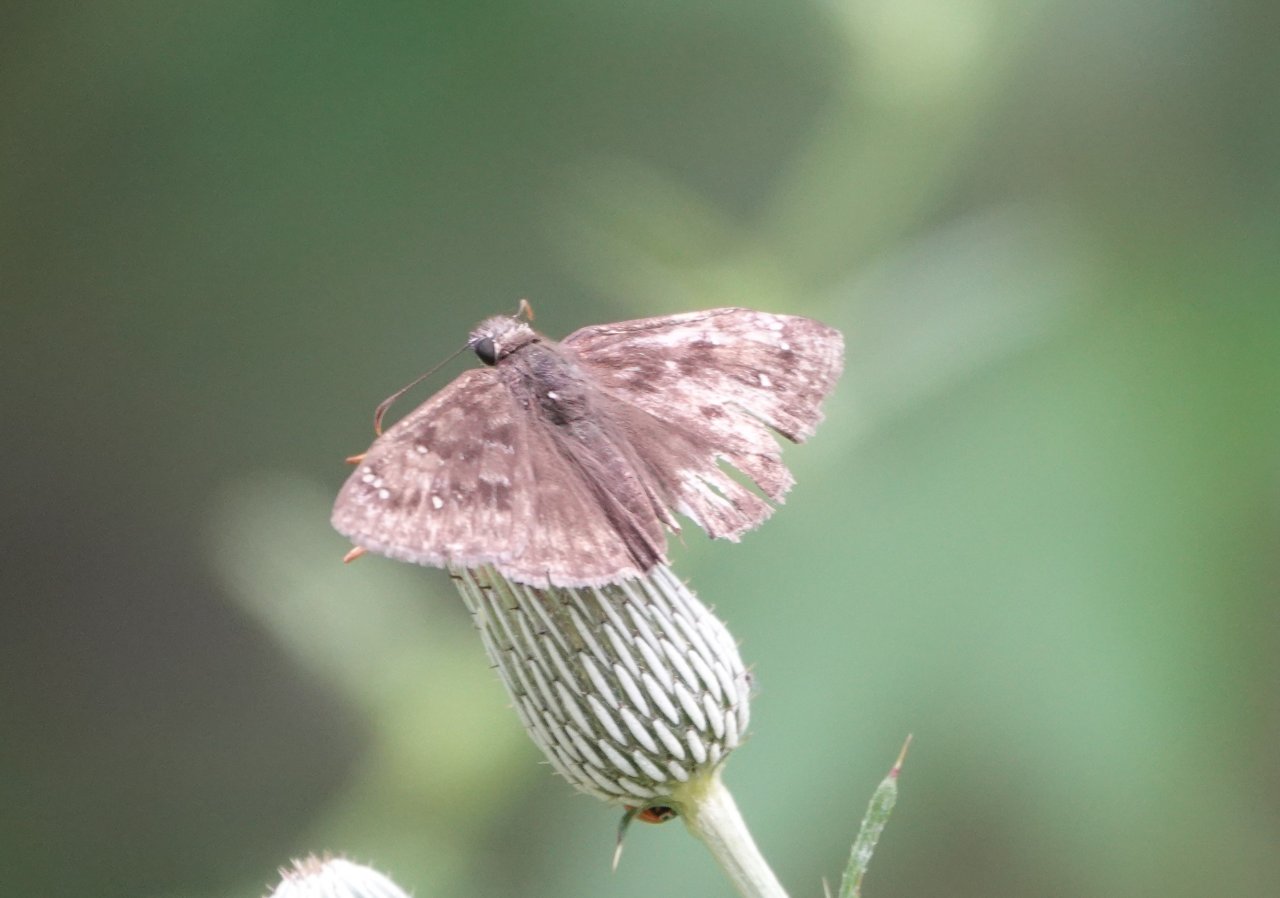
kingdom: Animalia
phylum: Arthropoda
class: Insecta
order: Lepidoptera
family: Hesperiidae
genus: Gesta
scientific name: Gesta
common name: Horace's Duskywing
